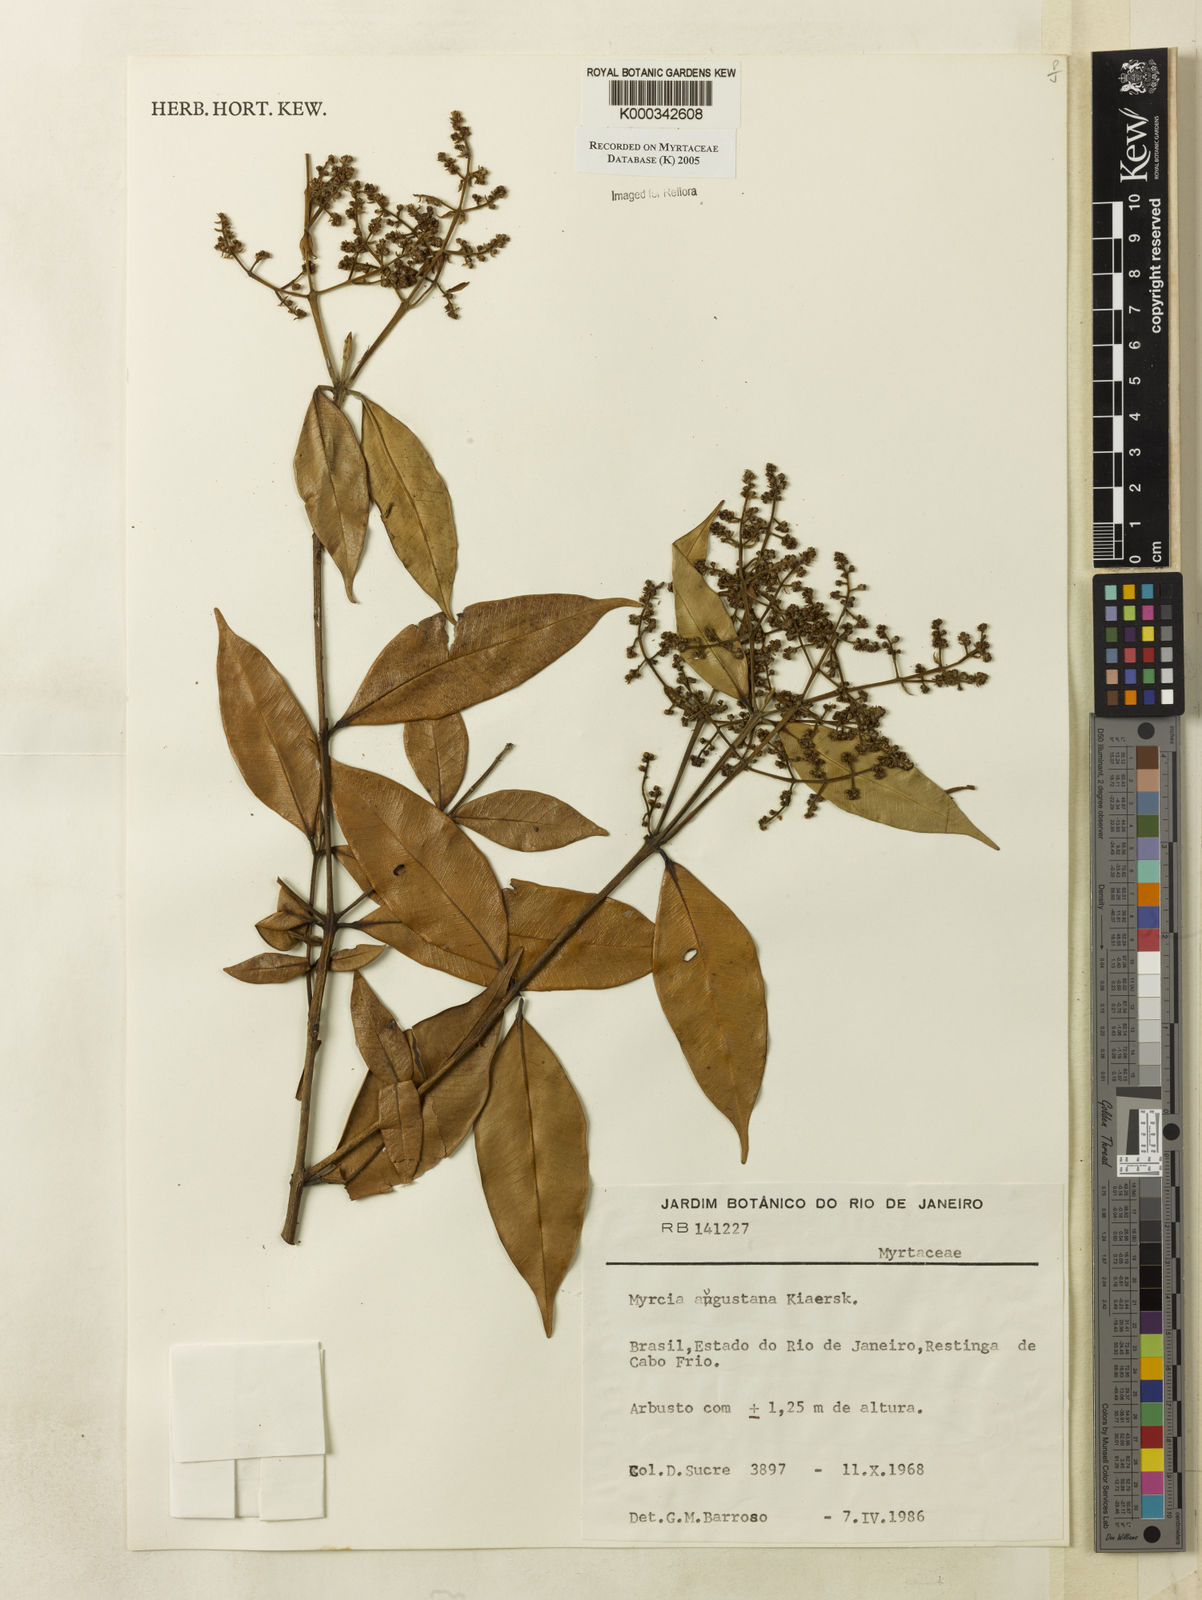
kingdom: Plantae
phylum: Tracheophyta
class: Magnoliopsida
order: Myrtales
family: Myrtaceae
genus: Myrcia
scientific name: Myrcia splendens
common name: Surinam cherry
